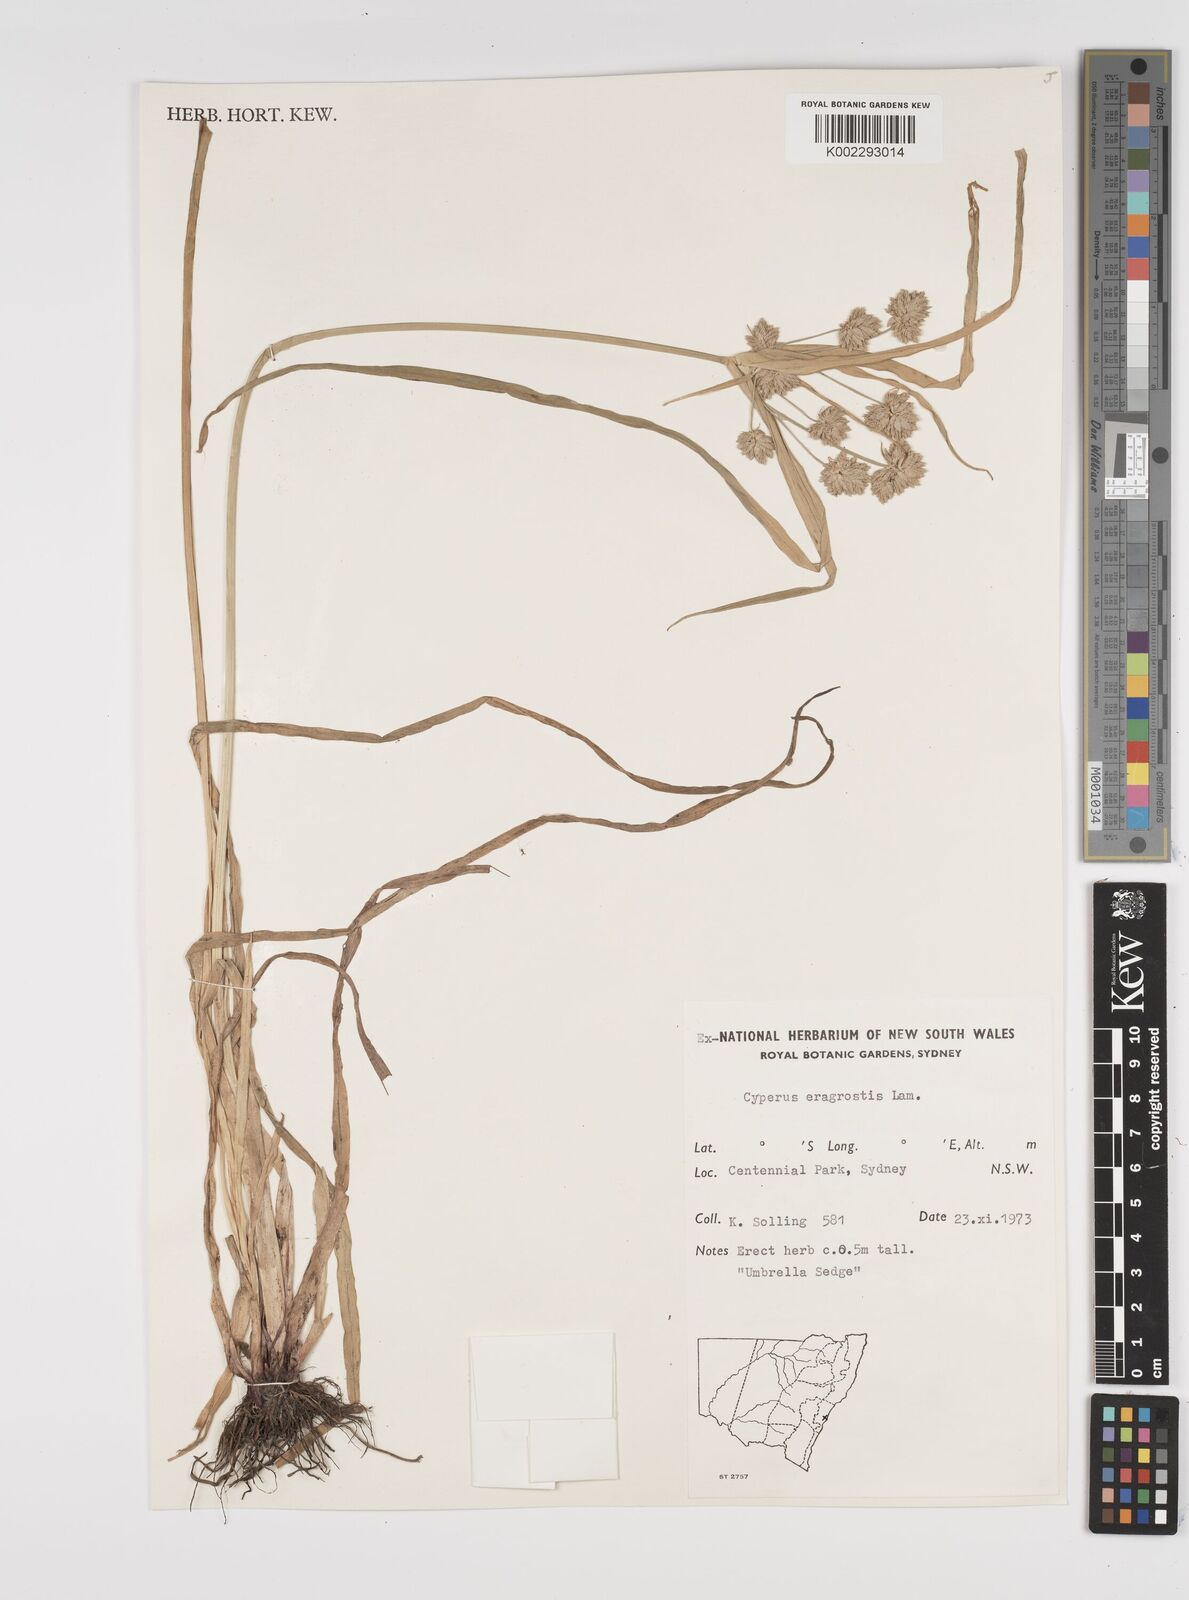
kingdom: Plantae
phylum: Tracheophyta
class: Liliopsida
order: Poales
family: Cyperaceae
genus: Cyperus
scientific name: Cyperus eragrostis
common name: Tall flatsedge
